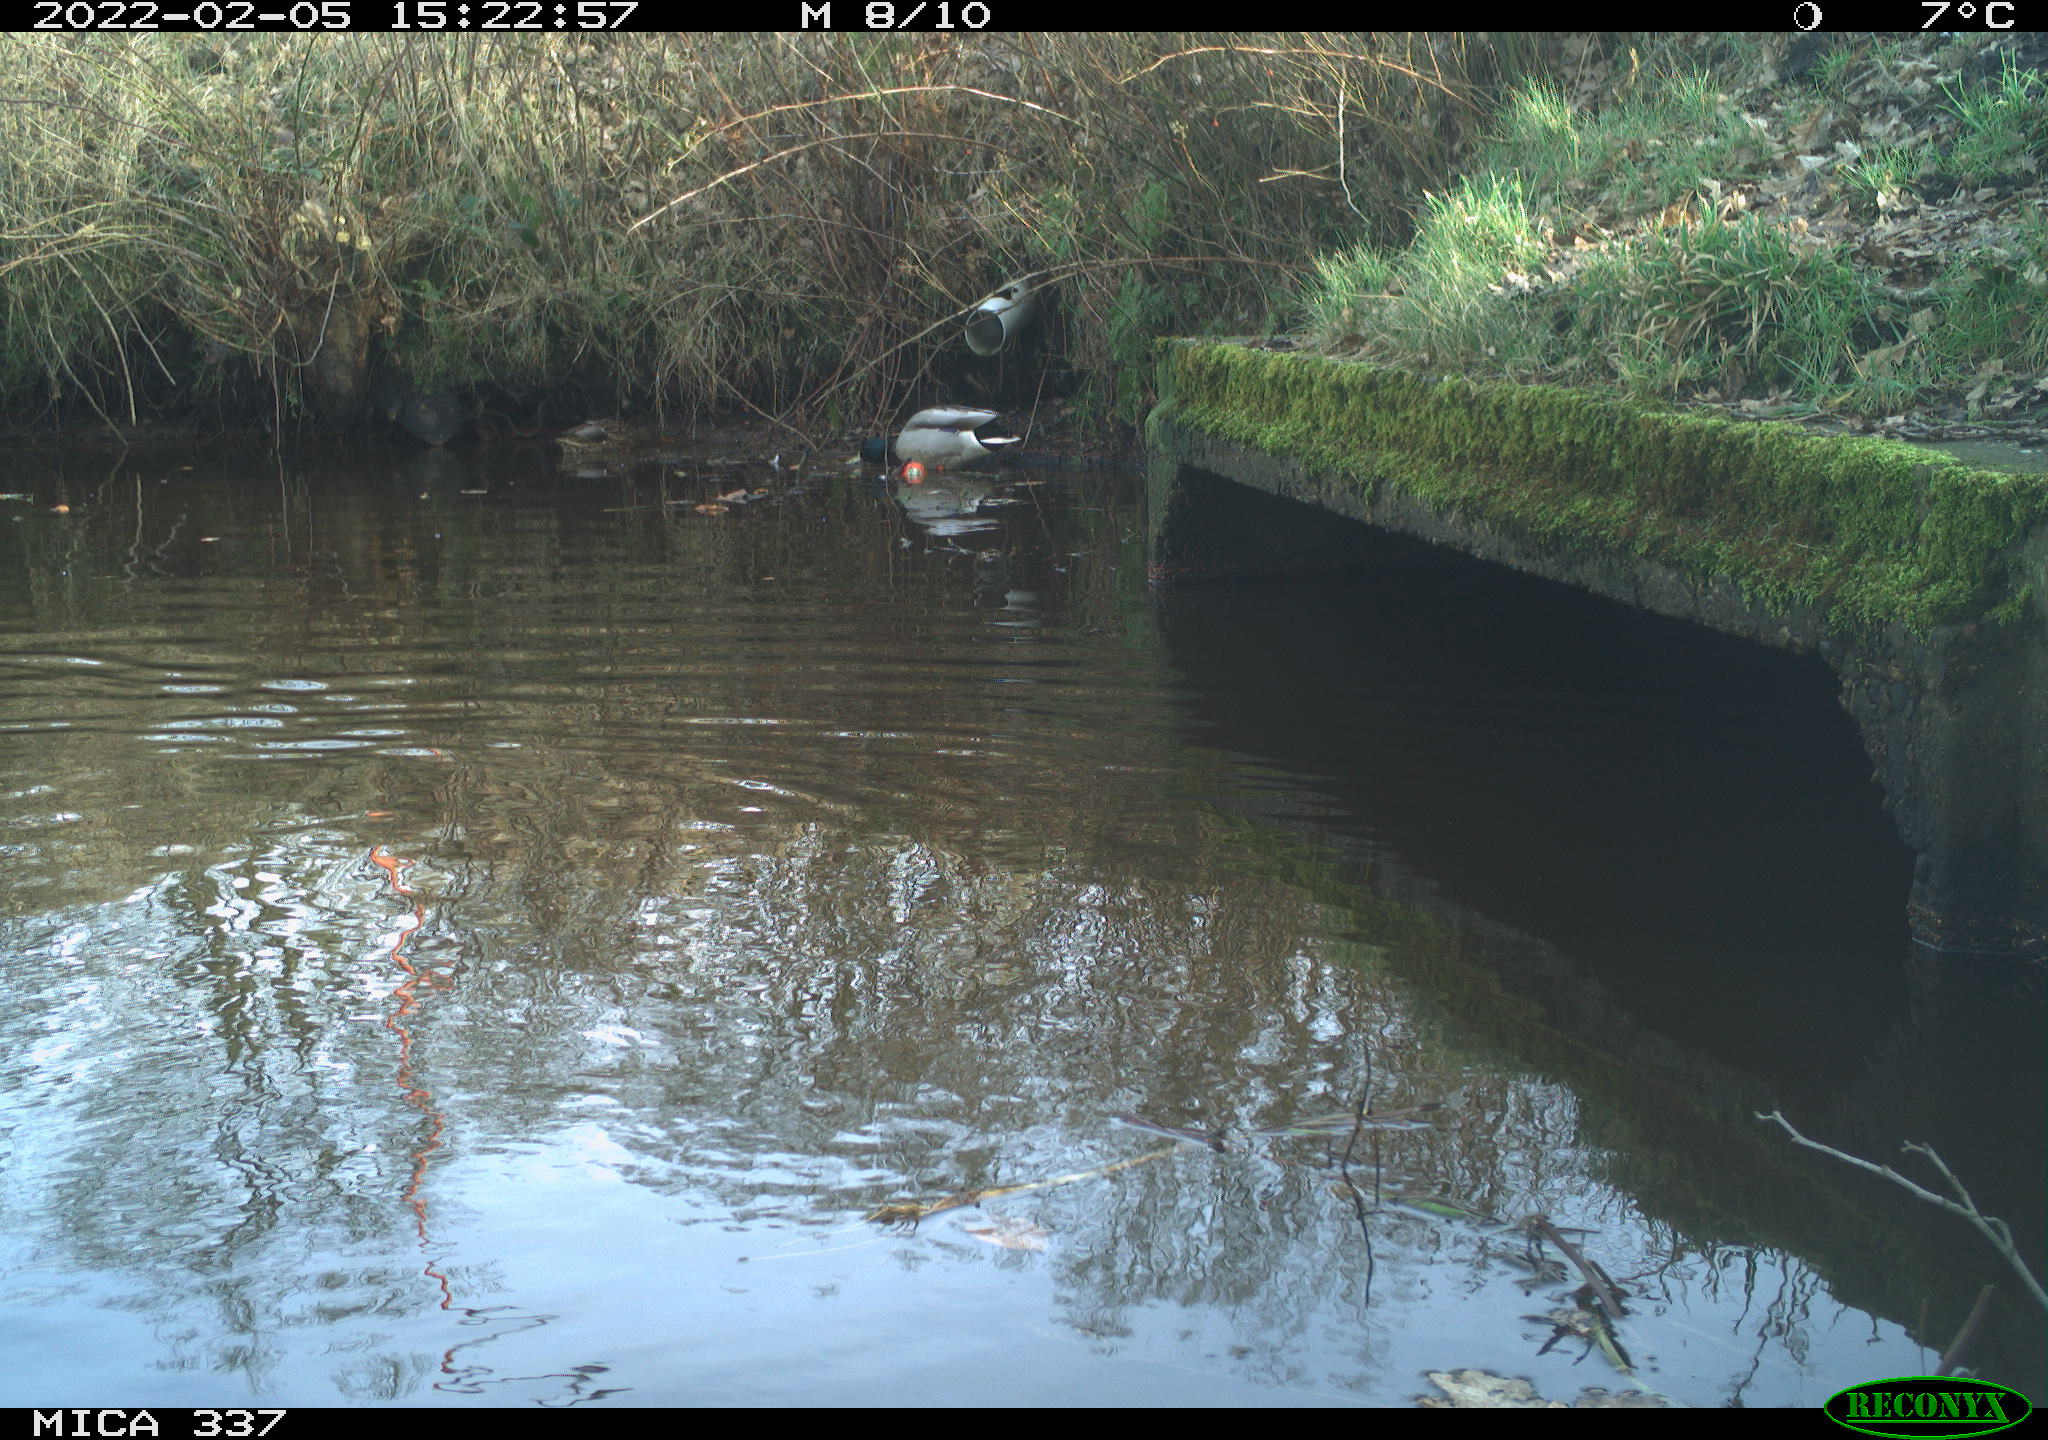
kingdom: Animalia
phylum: Chordata
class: Aves
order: Anseriformes
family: Anatidae
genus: Anas
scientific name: Anas platyrhynchos
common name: Mallard
